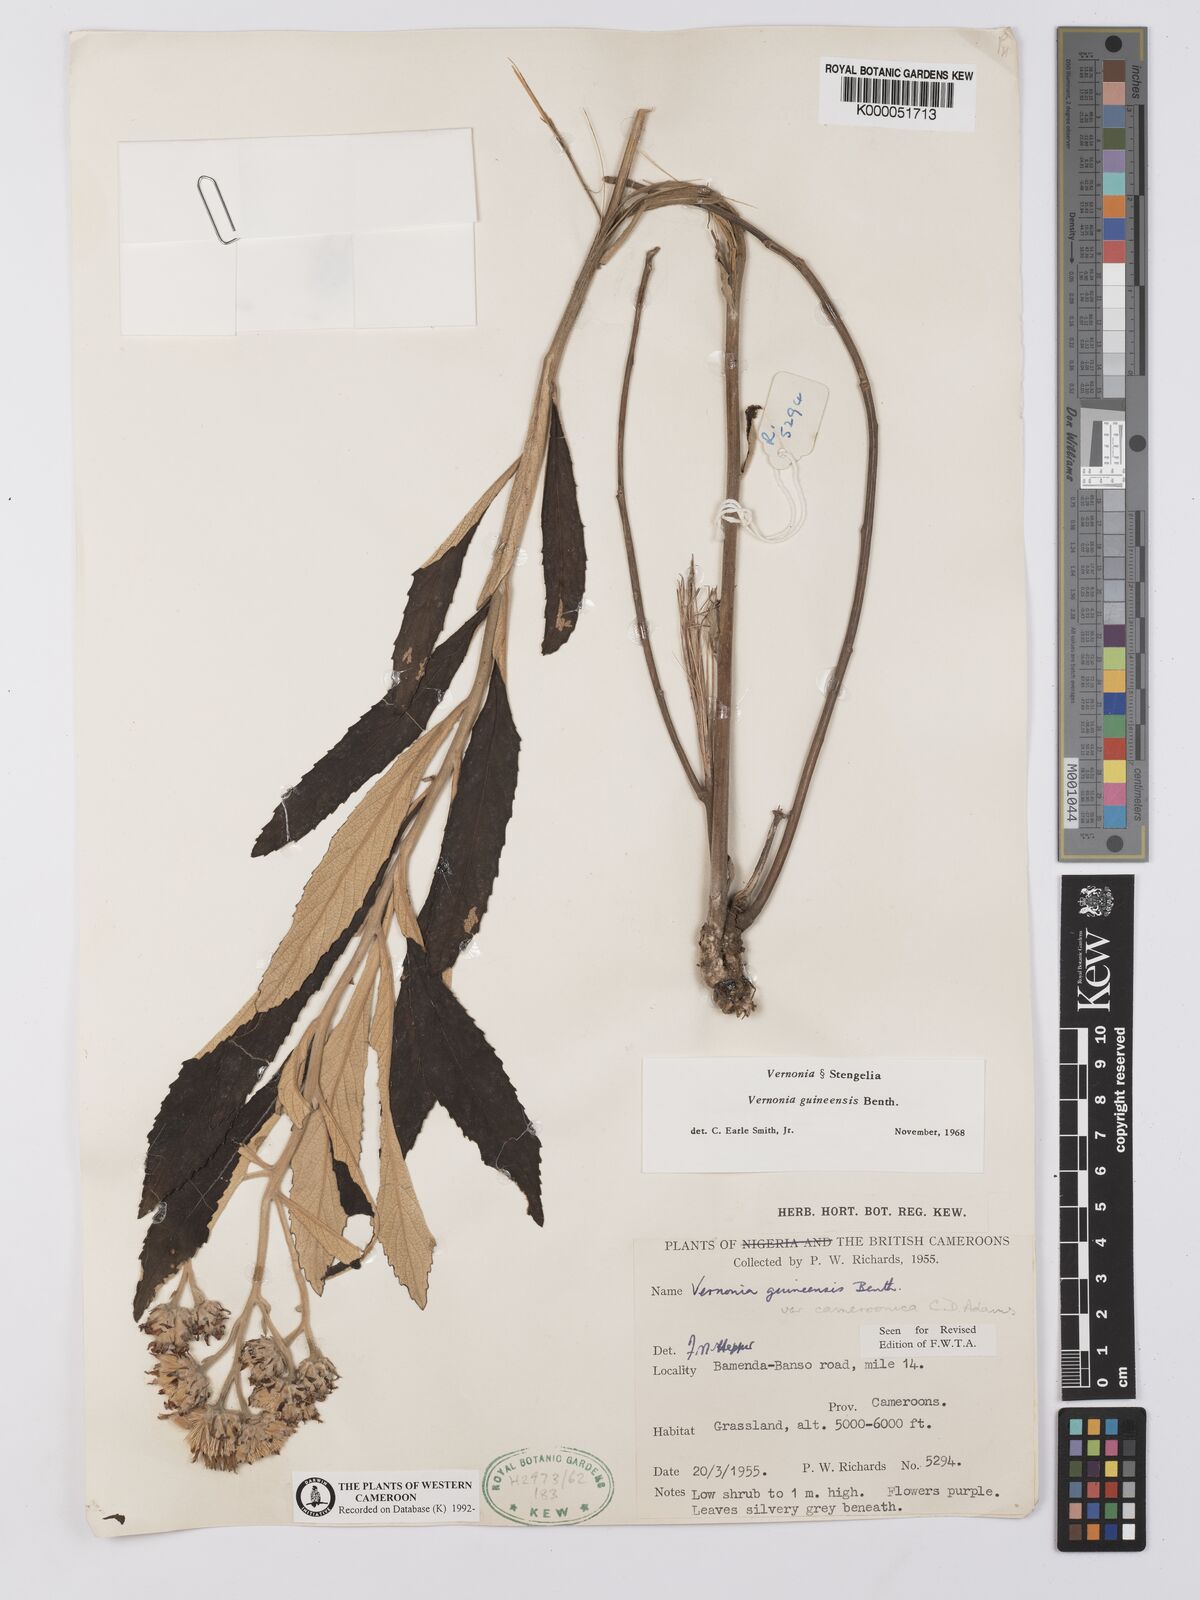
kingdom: Plantae
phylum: Tracheophyta
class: Magnoliopsida
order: Asterales
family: Asteraceae
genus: Baccharoides
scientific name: Baccharoides guineensis
